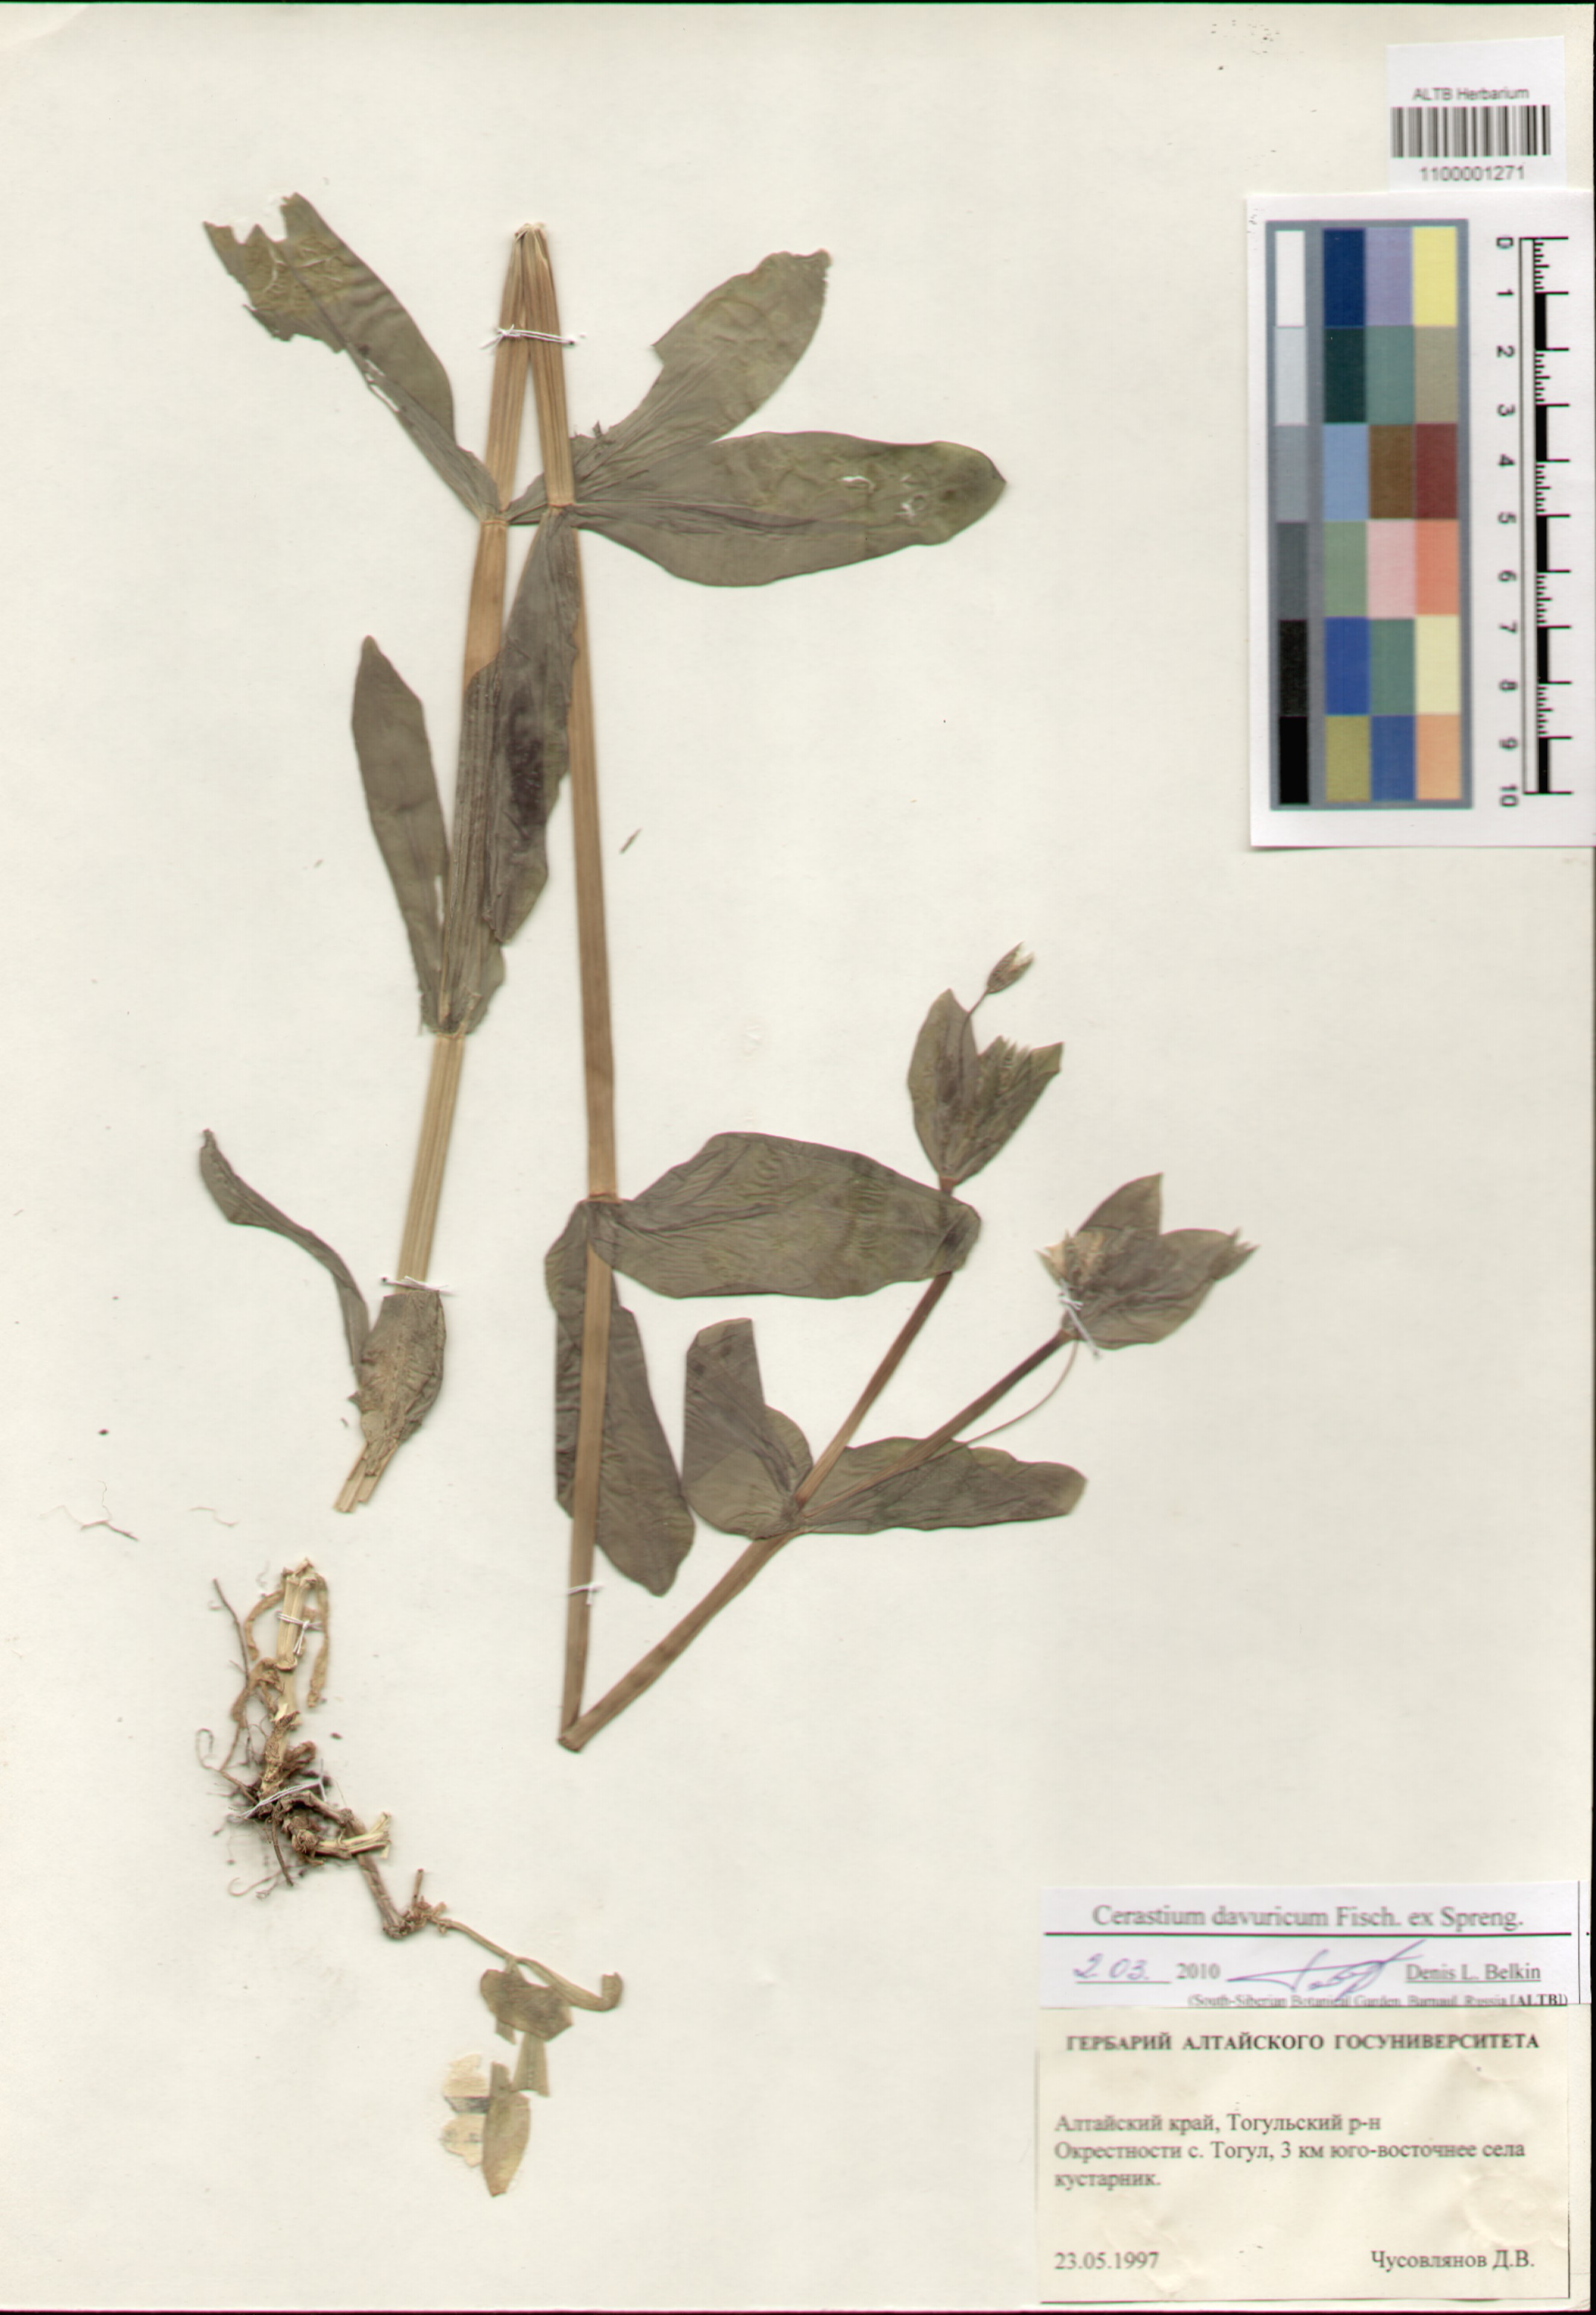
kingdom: Plantae
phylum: Tracheophyta
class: Magnoliopsida
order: Caryophyllales
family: Caryophyllaceae
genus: Dichodon
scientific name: Dichodon davuricum
